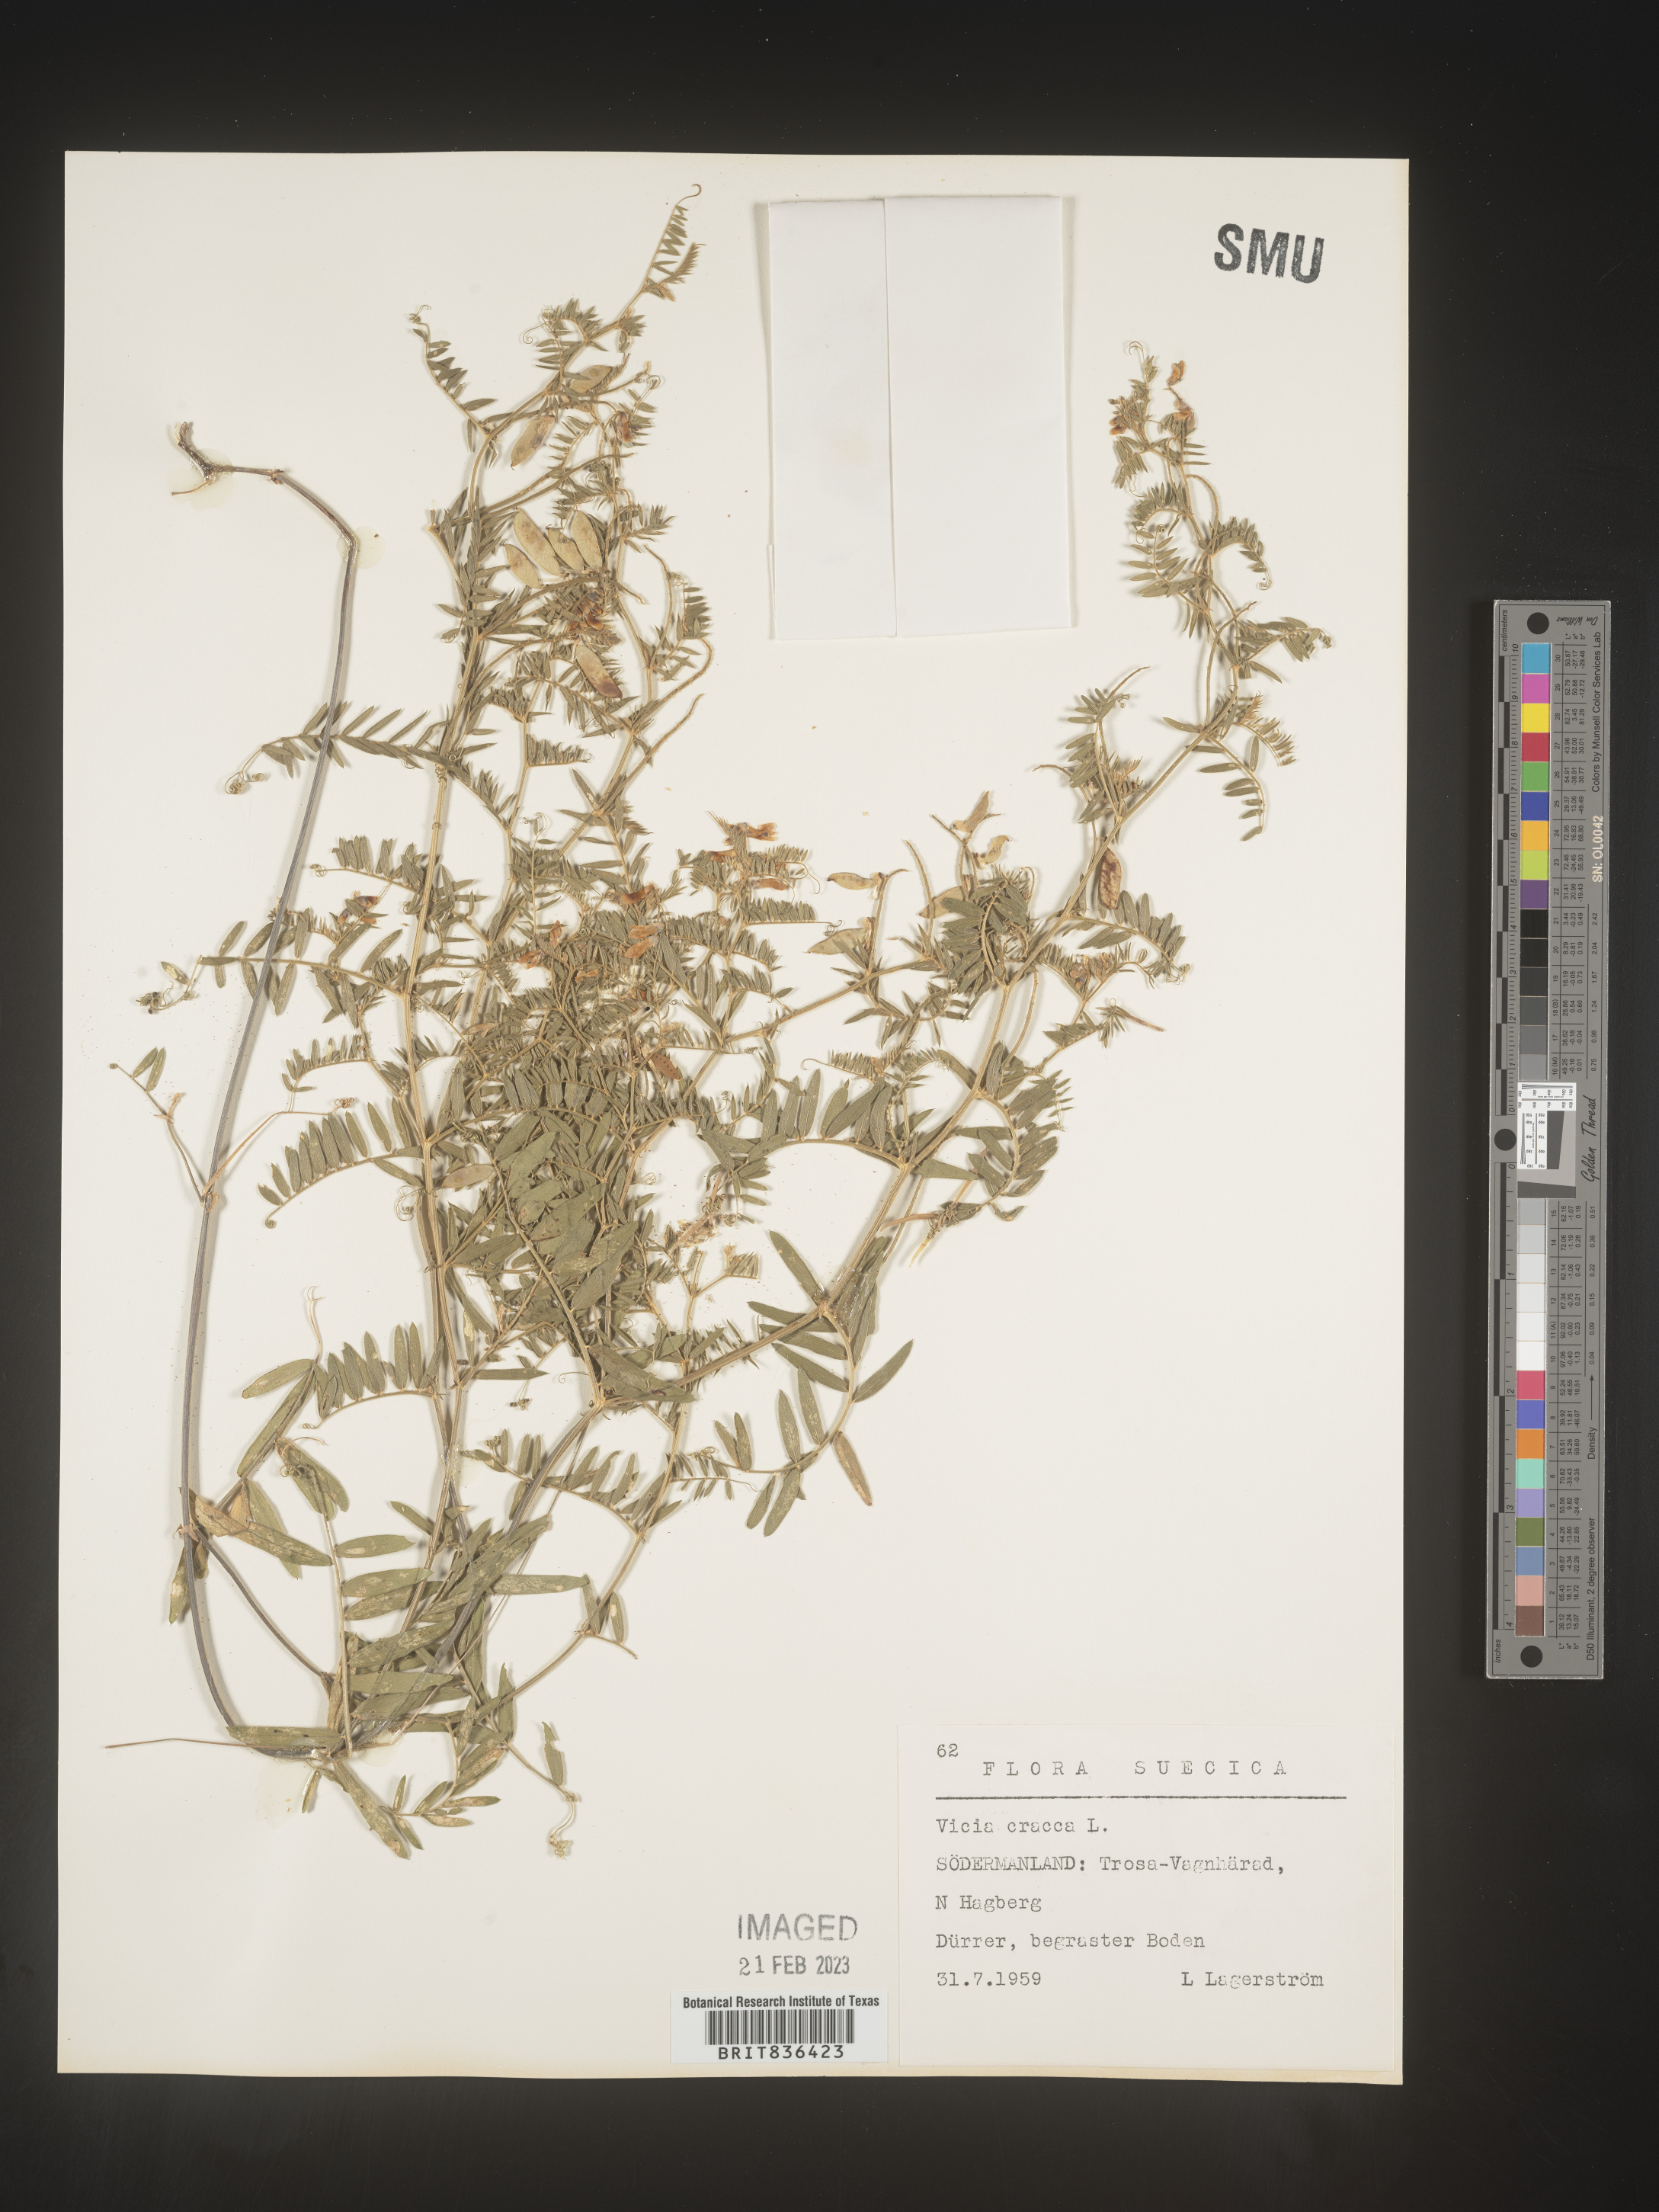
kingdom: Plantae
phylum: Tracheophyta
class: Magnoliopsida
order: Fabales
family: Fabaceae
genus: Vicia
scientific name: Vicia
